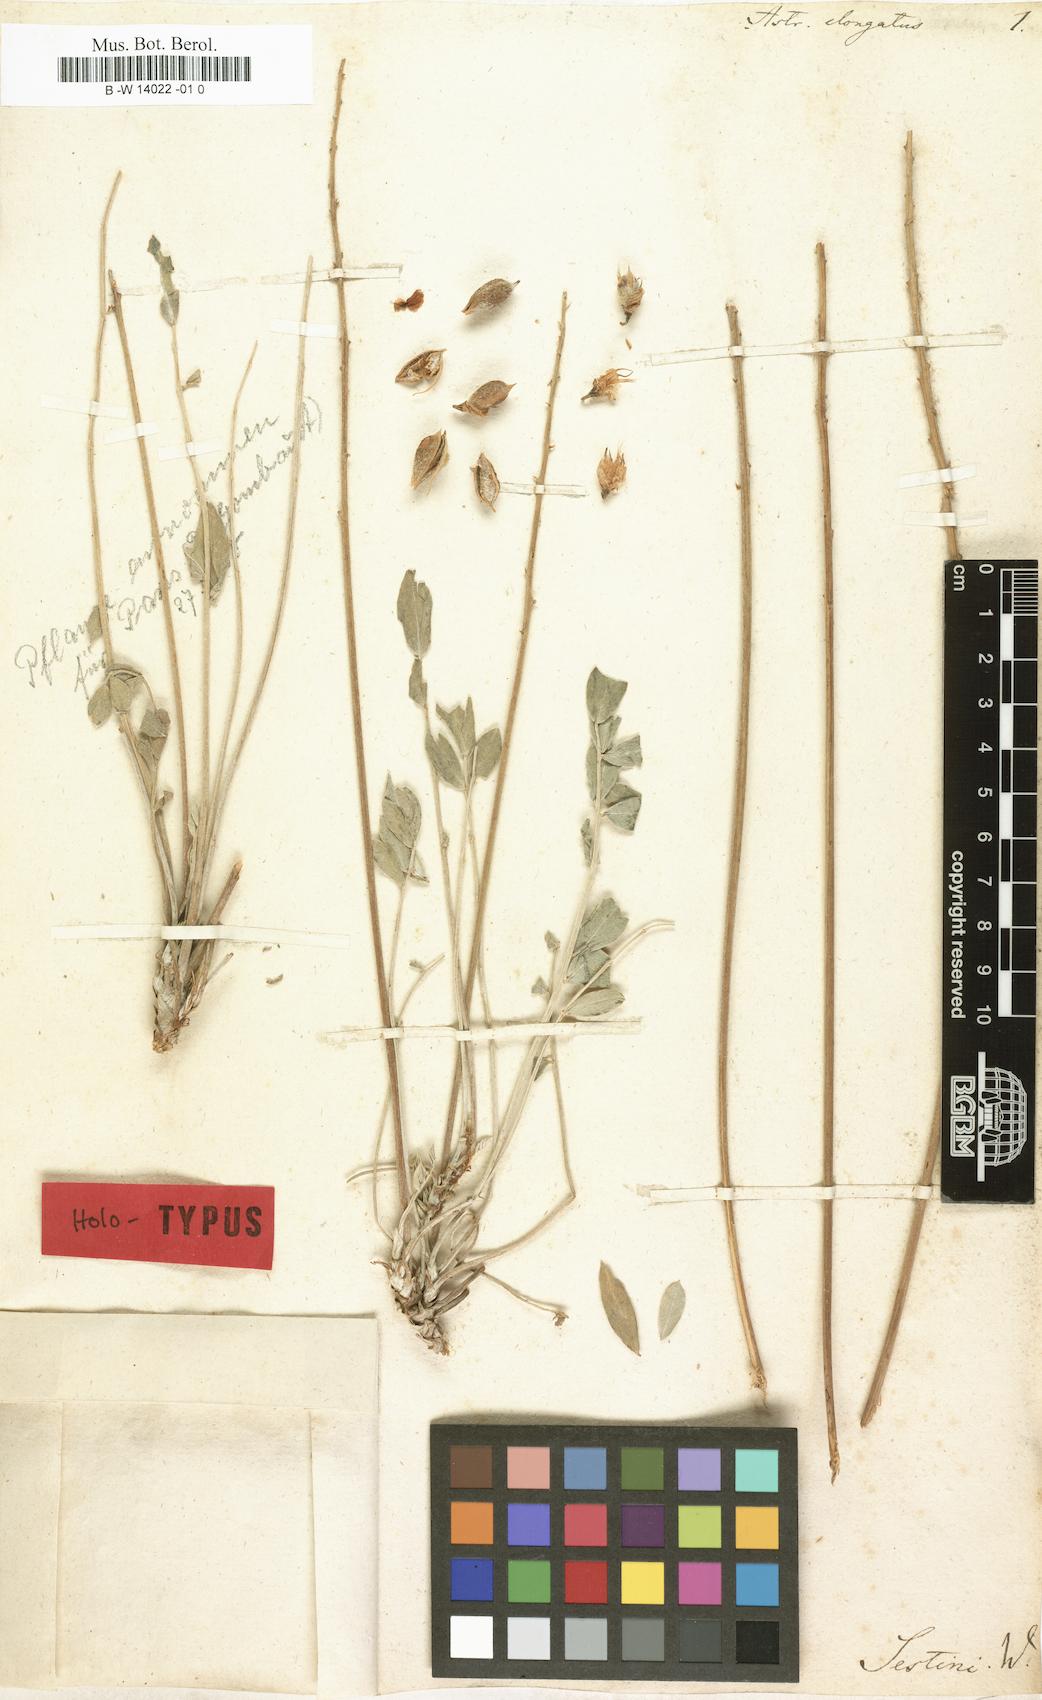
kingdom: Plantae
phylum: Tracheophyta
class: Magnoliopsida
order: Fabales
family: Fabaceae
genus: Astragalus
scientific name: Astragalus elongatus
